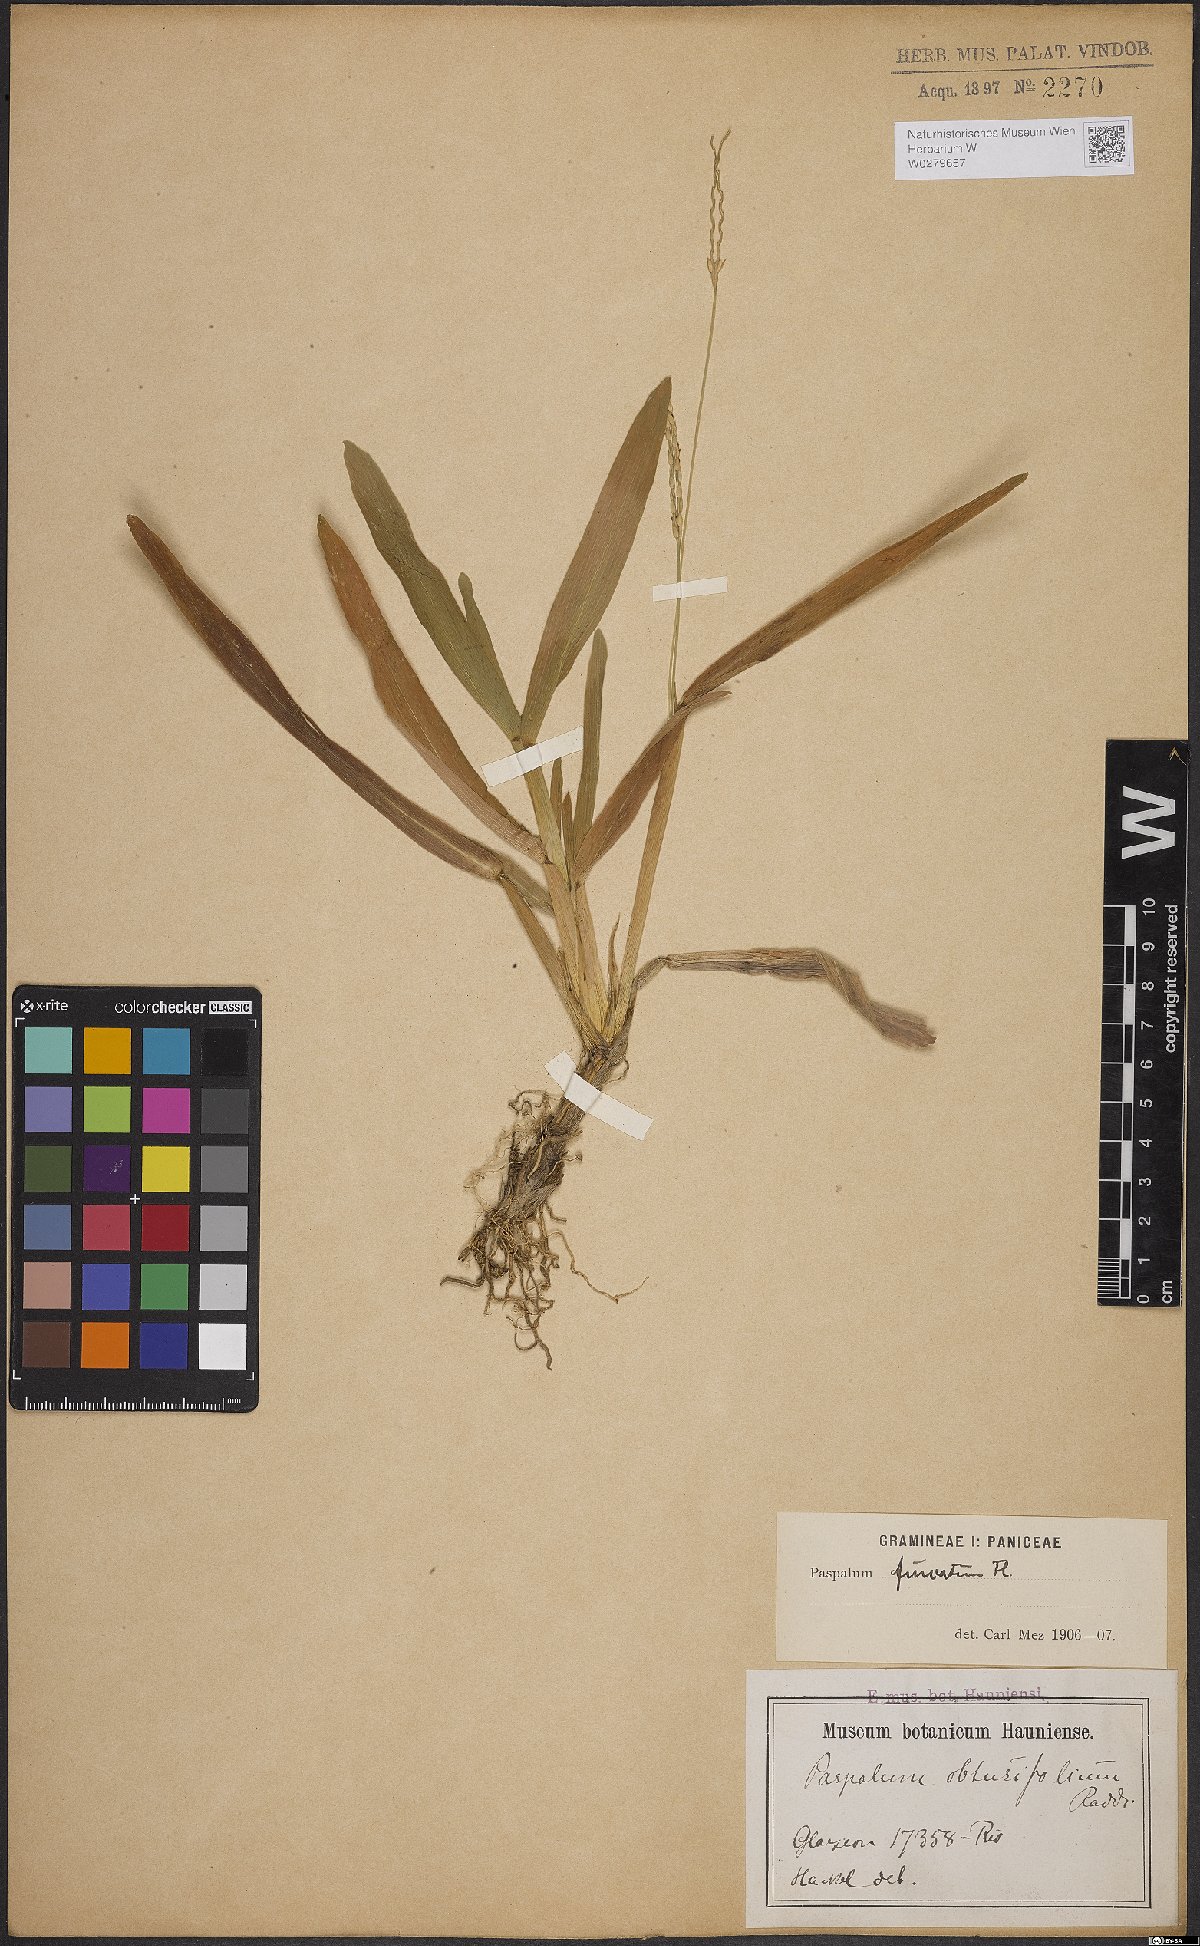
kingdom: Plantae
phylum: Tracheophyta
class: Liliopsida
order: Poales
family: Poaceae
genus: Axonopus
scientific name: Axonopus furcatus
